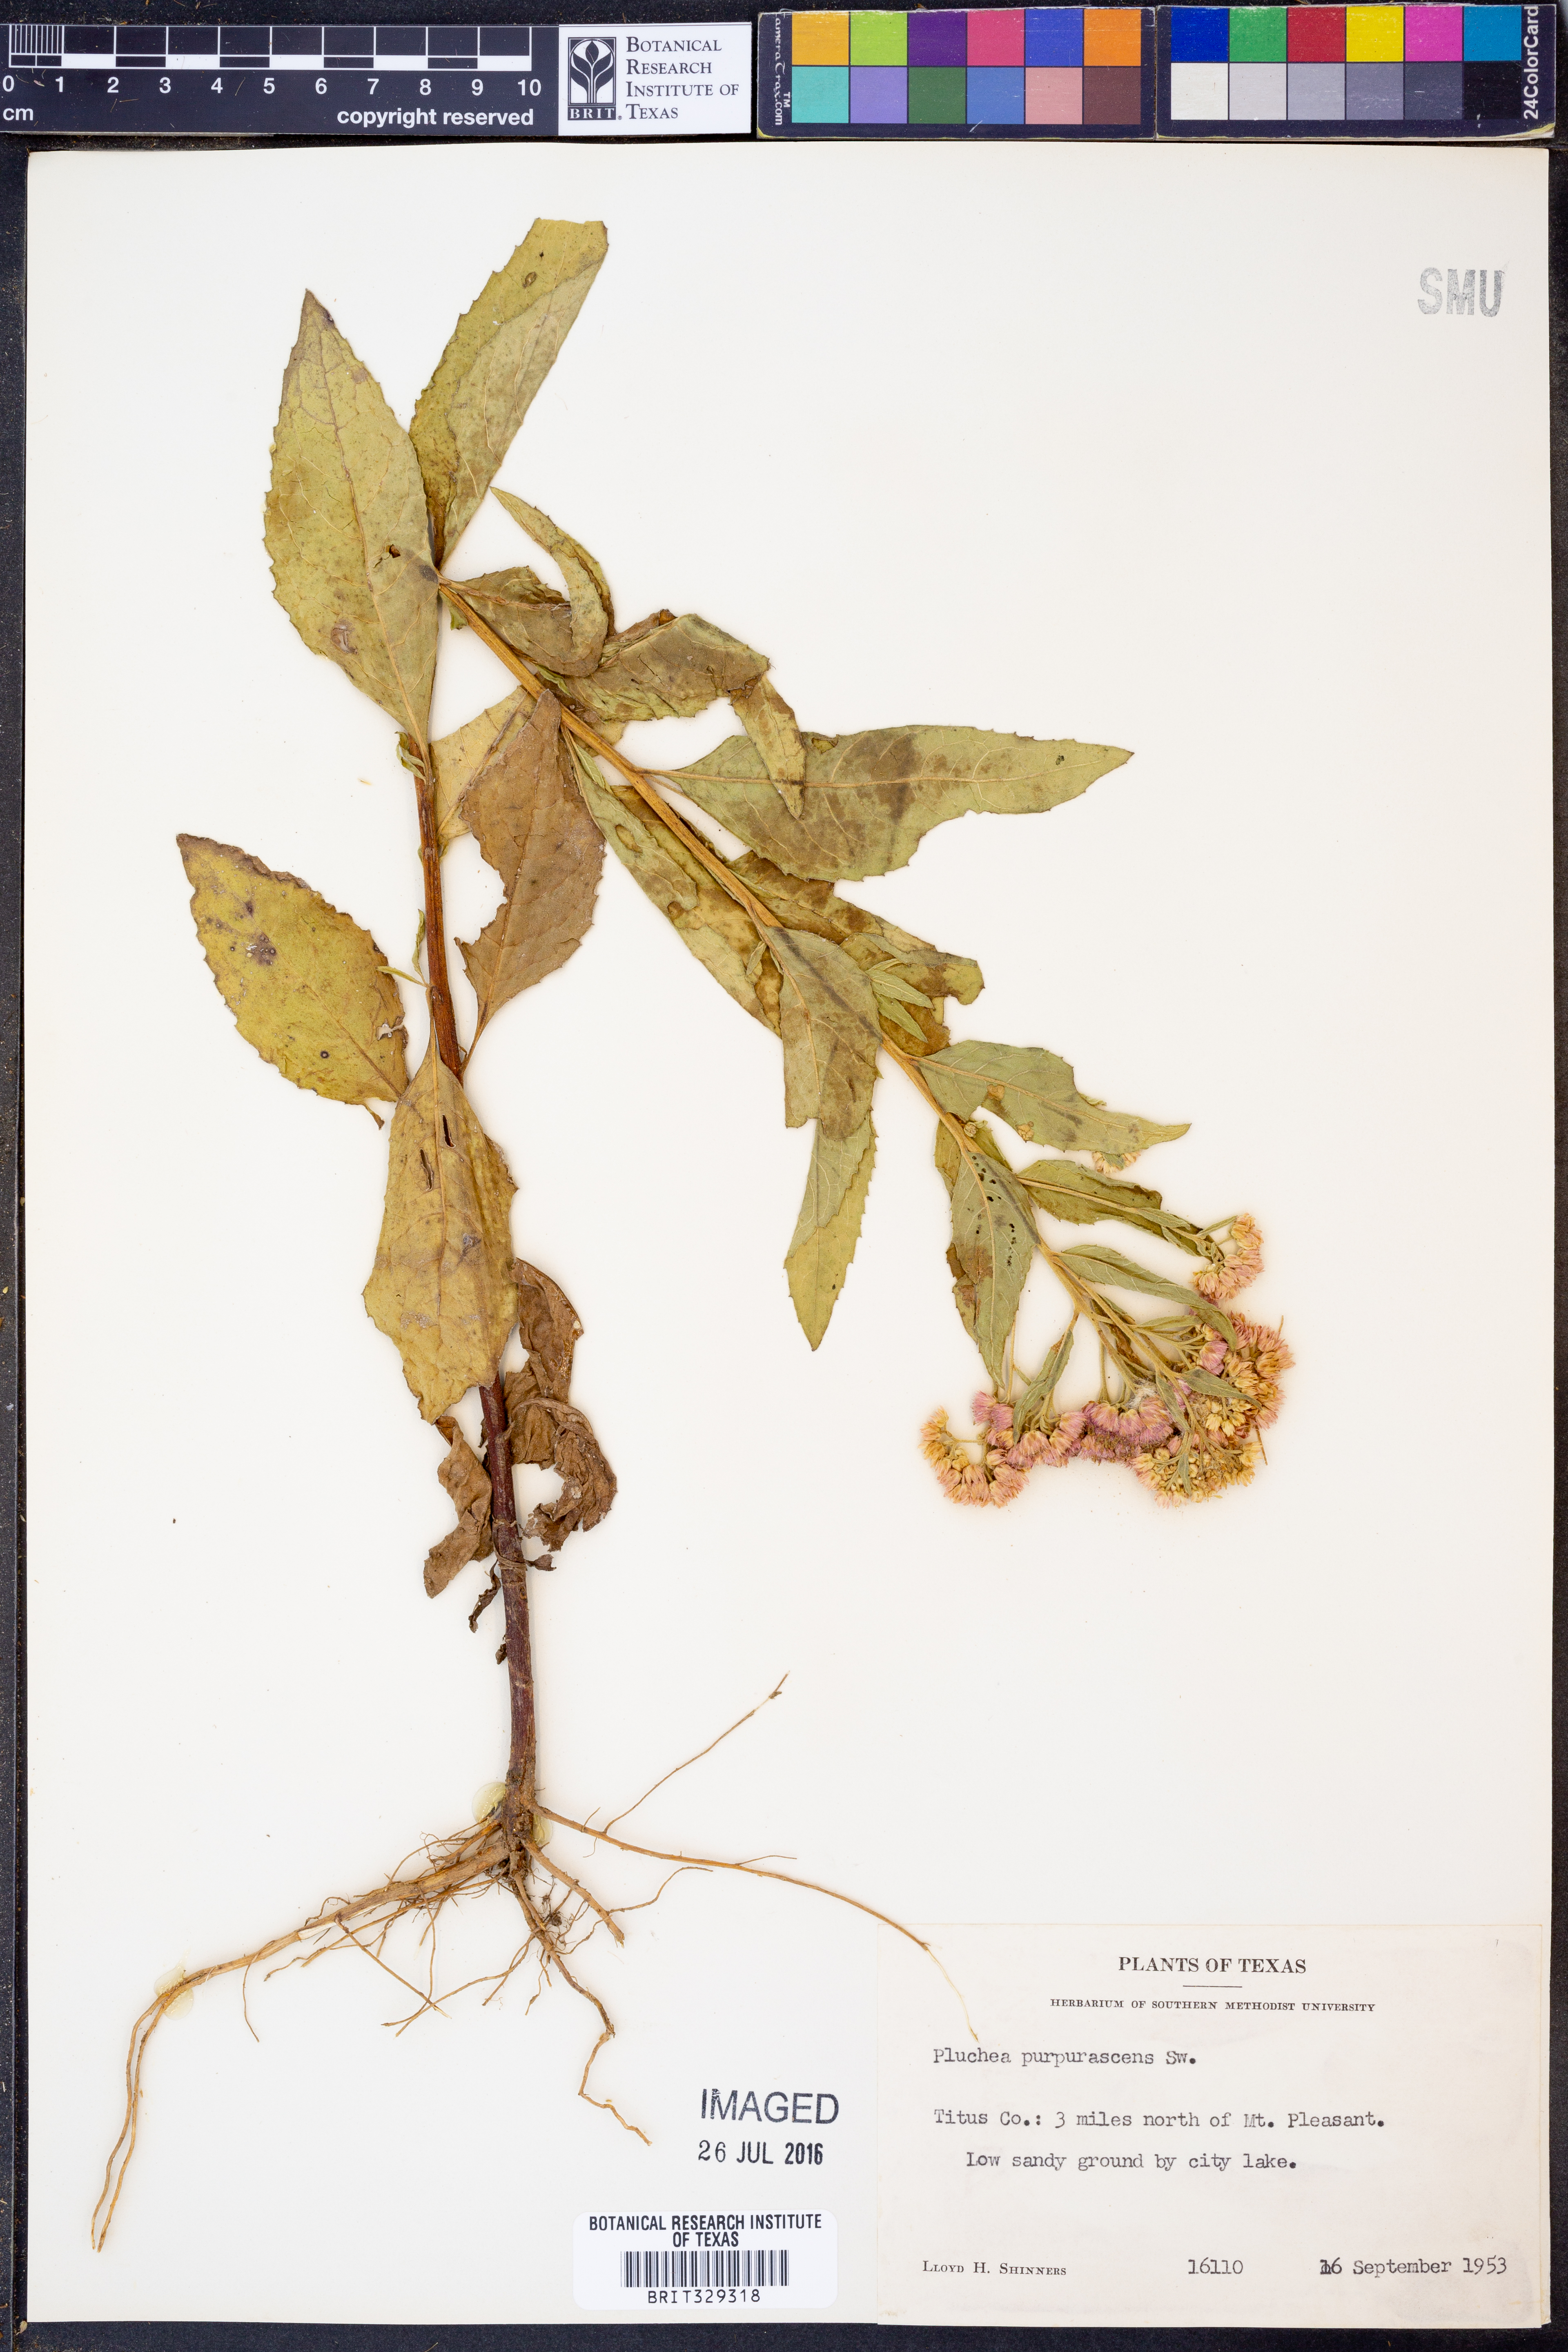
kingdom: Plantae
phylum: Tracheophyta
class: Magnoliopsida
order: Asterales
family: Asteraceae
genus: Pluchea
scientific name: Pluchea odorata
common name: Saltmarsh fleabane
